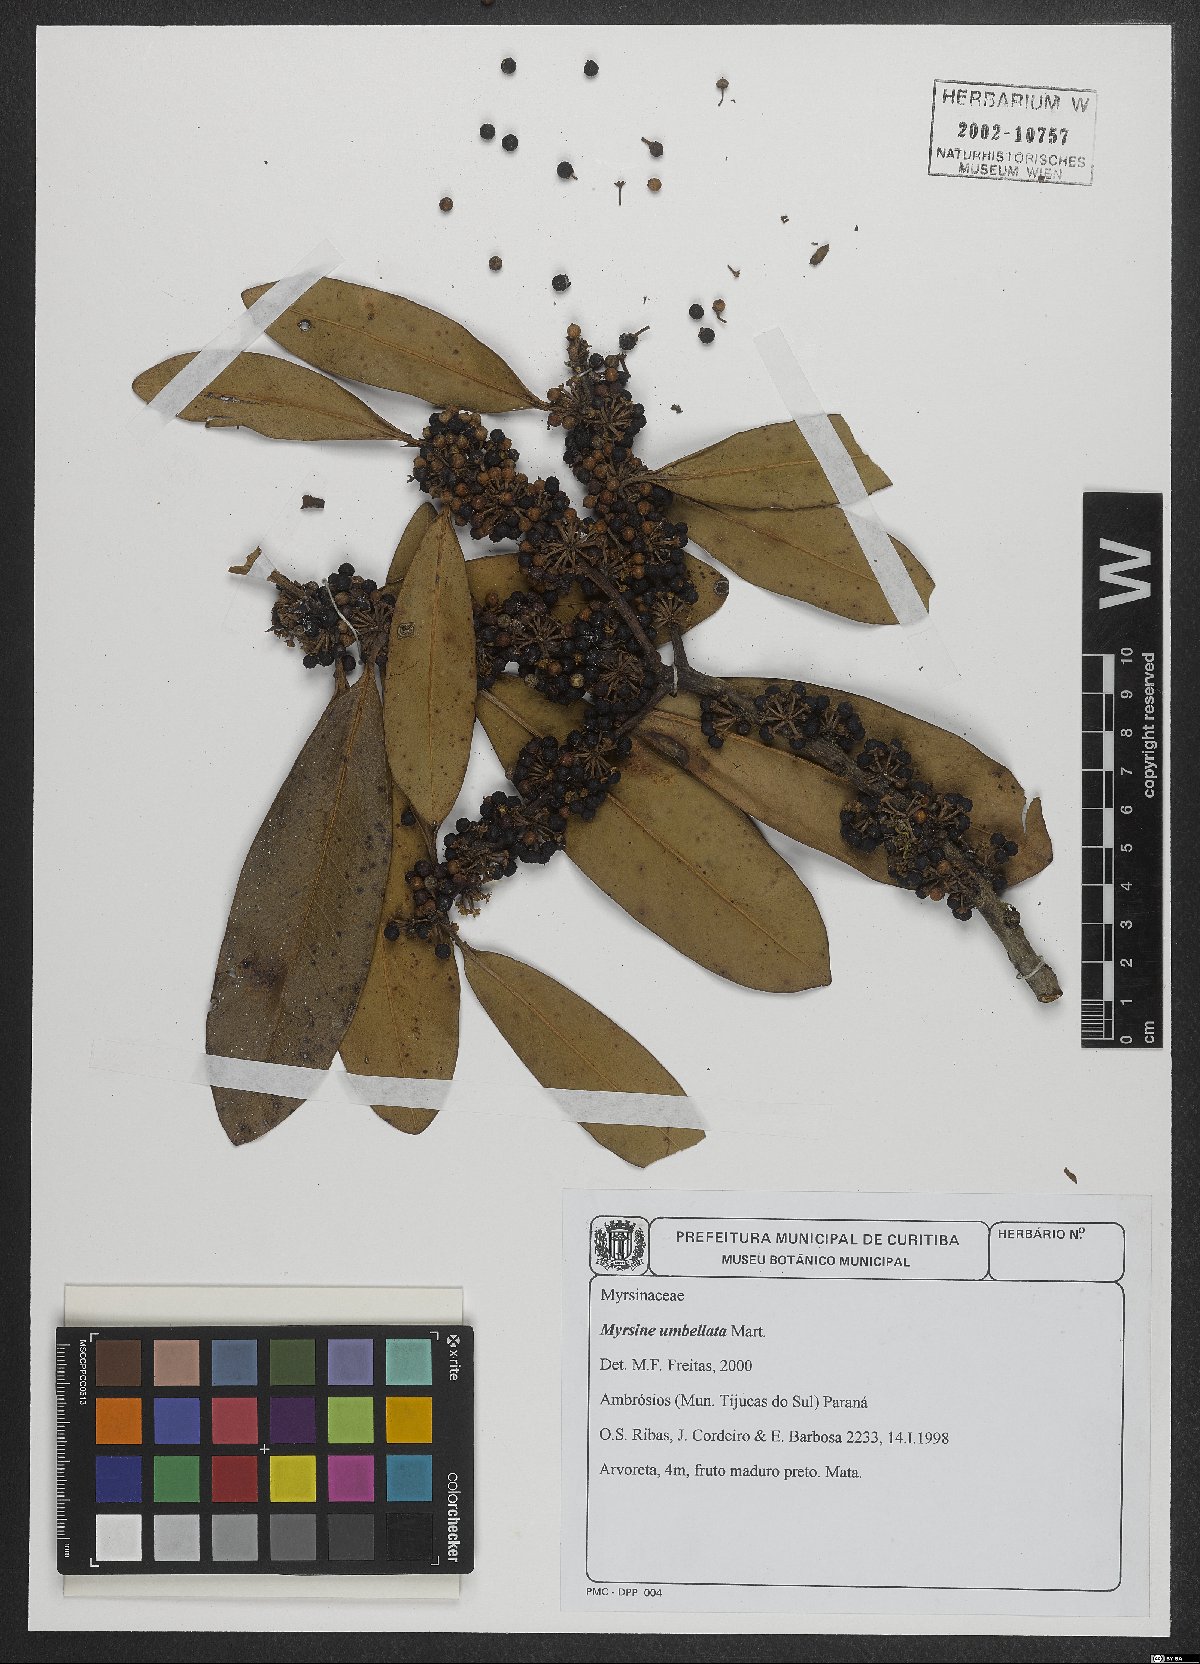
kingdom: Plantae
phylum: Tracheophyta
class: Magnoliopsida
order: Ericales
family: Primulaceae
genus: Myrsine
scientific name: Myrsine umbellata
